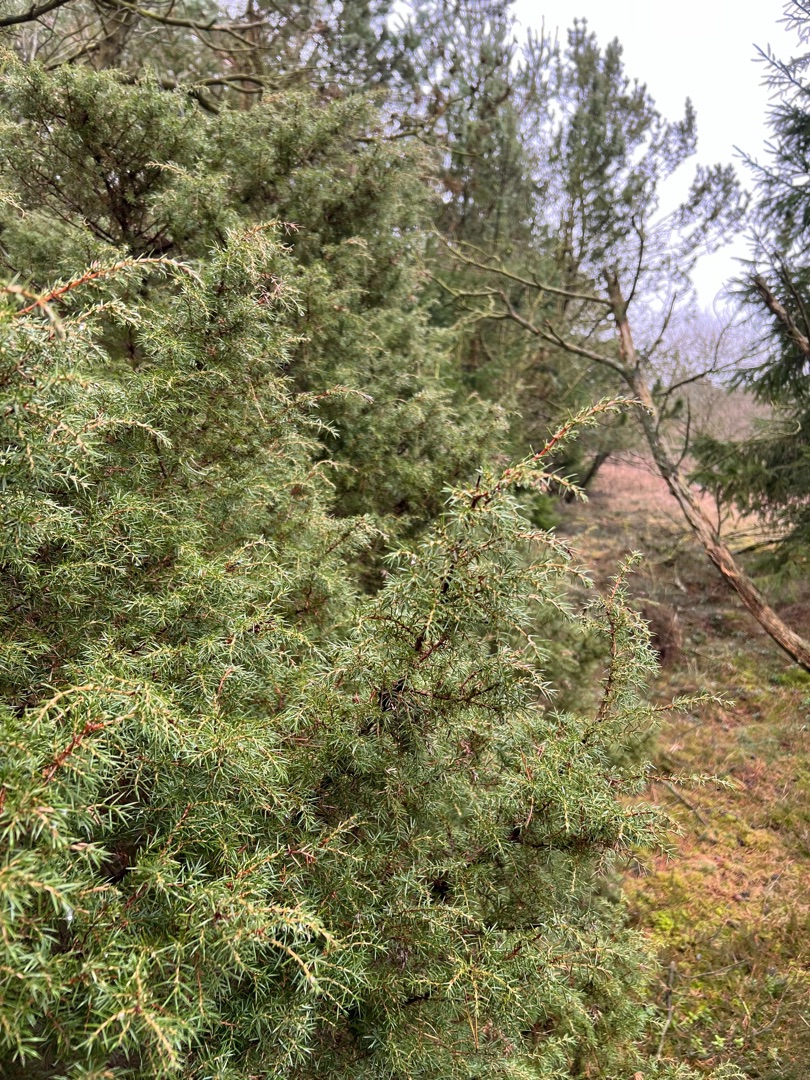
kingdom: Plantae
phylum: Tracheophyta
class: Pinopsida
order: Pinales
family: Cupressaceae
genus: Juniperus
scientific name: Juniperus communis
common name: Almindelig ene
